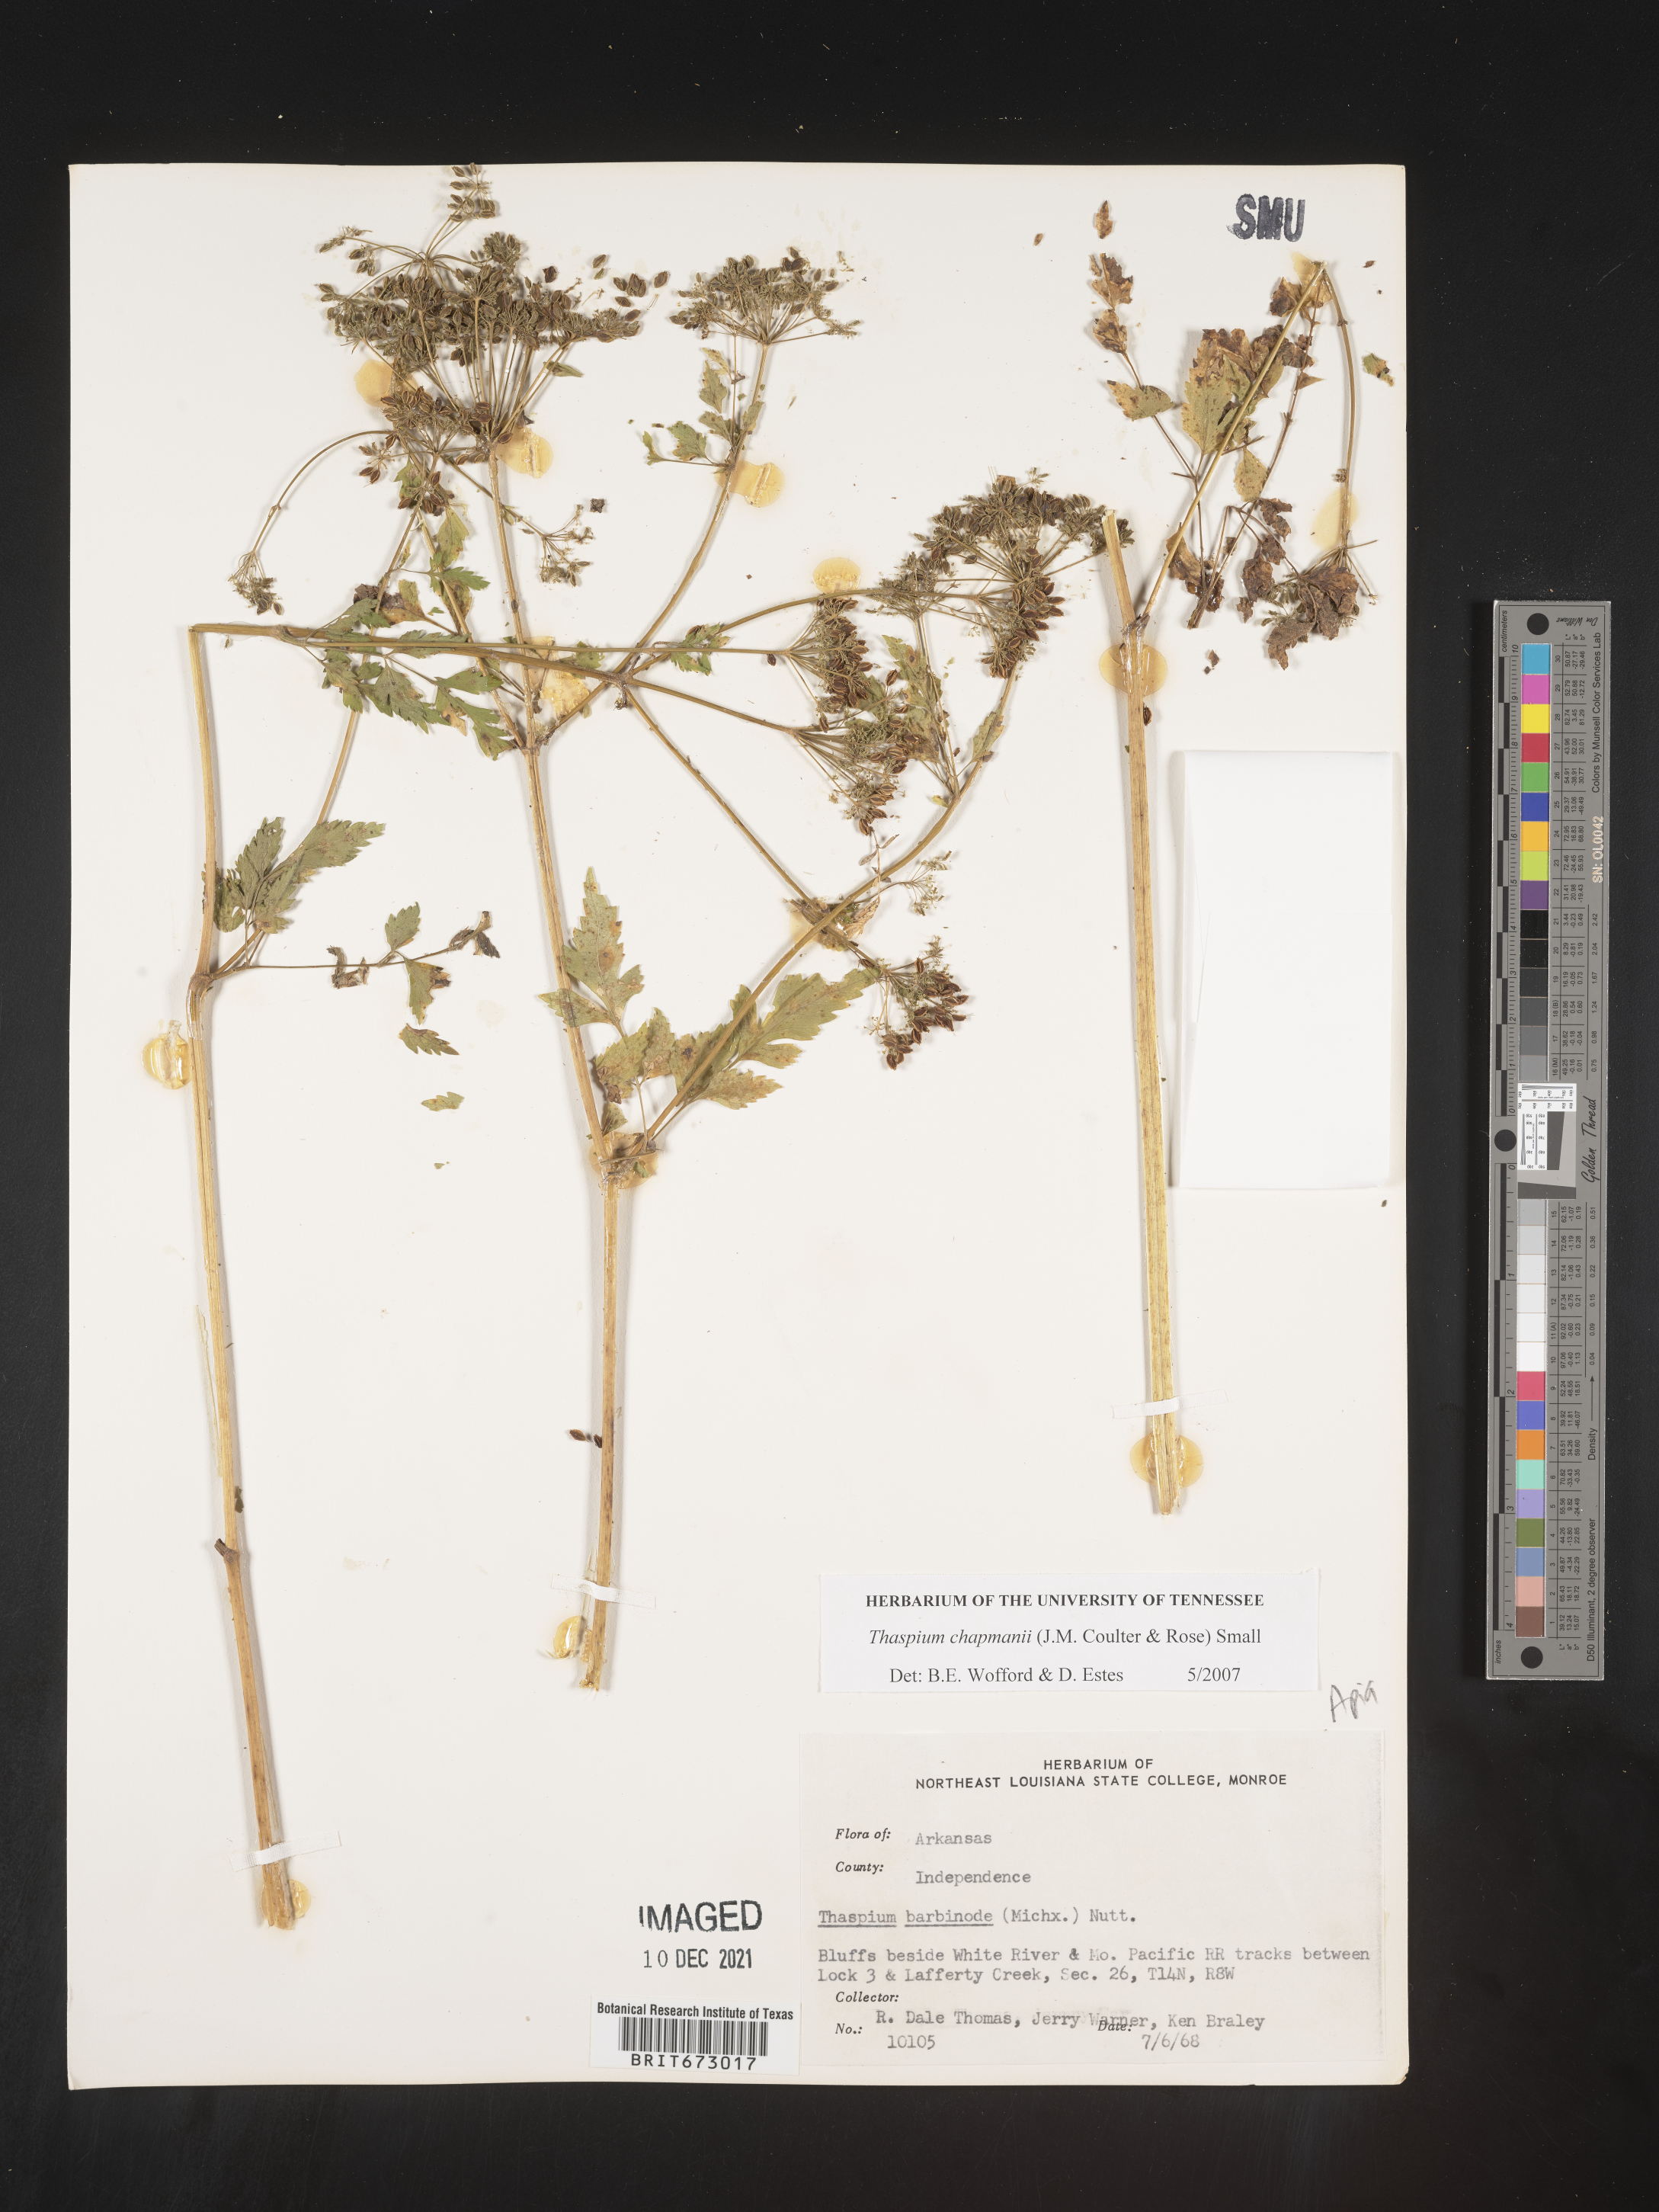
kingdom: Plantae
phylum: Tracheophyta
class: Magnoliopsida
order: Apiales
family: Apiaceae
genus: Thaspium
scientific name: Thaspium barbinode
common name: Bearded meadow-parsnip
